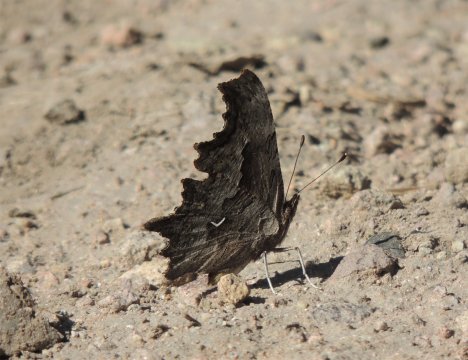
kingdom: Animalia
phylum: Arthropoda
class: Insecta
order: Lepidoptera
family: Nymphalidae
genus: Polygonia
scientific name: Polygonia gracilis
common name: Hoary Comma
